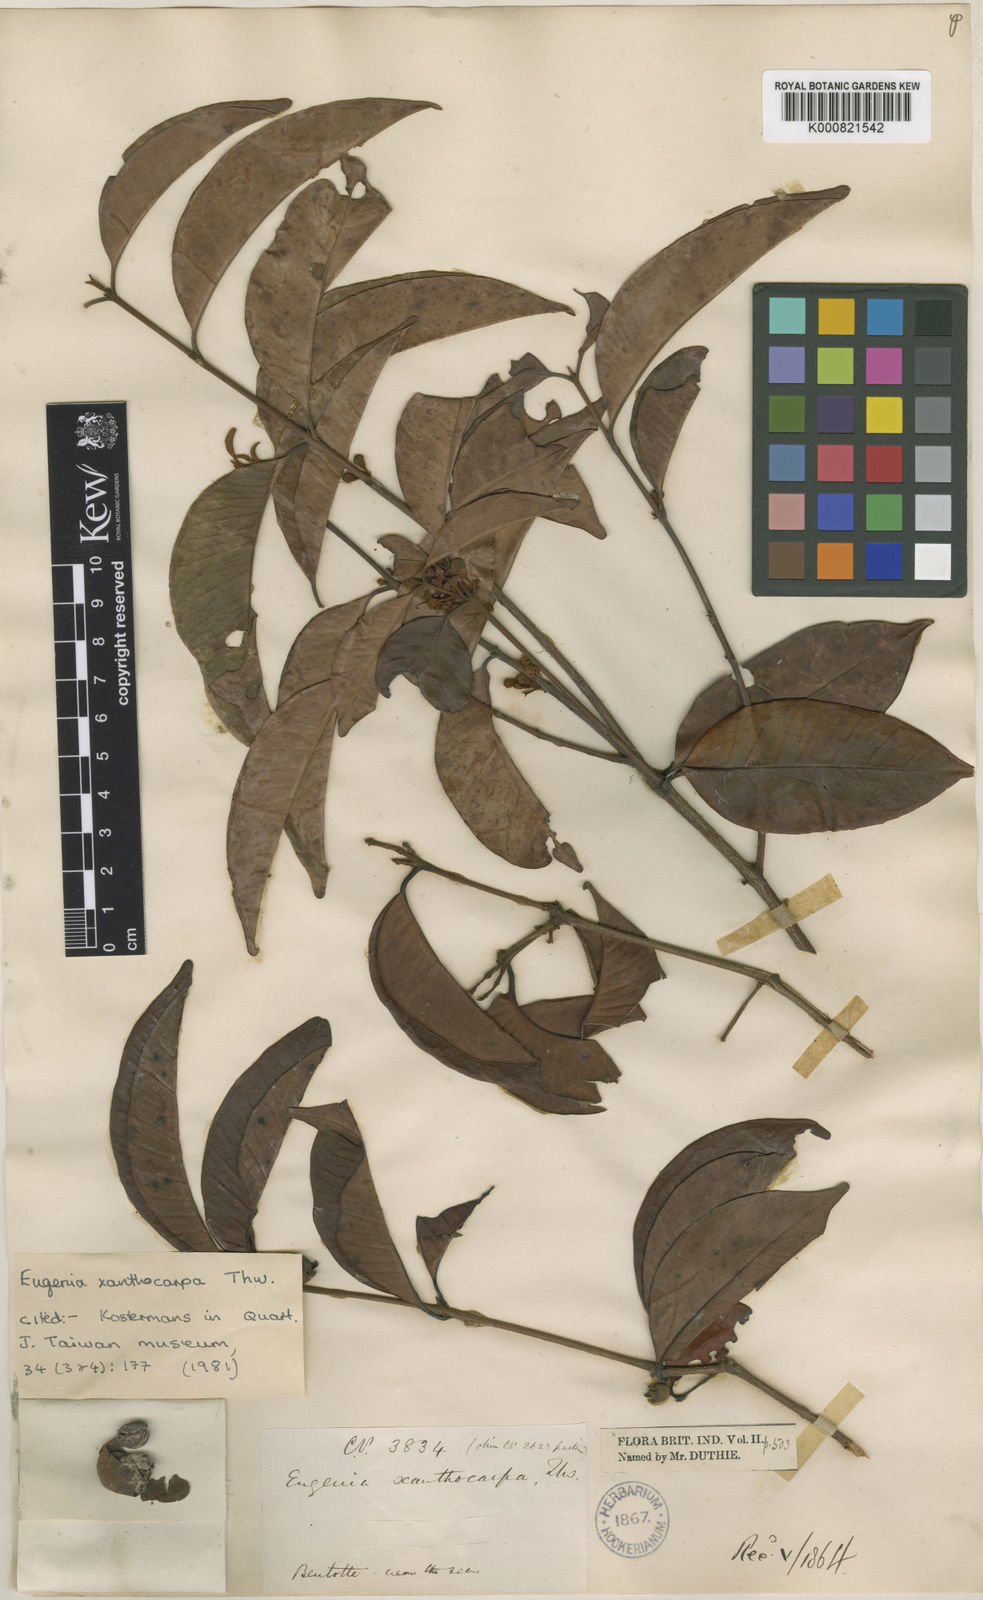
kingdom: Plantae
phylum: Tracheophyta
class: Magnoliopsida
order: Myrtales
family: Myrtaceae
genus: Eugenia
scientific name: Eugenia rufofulva
